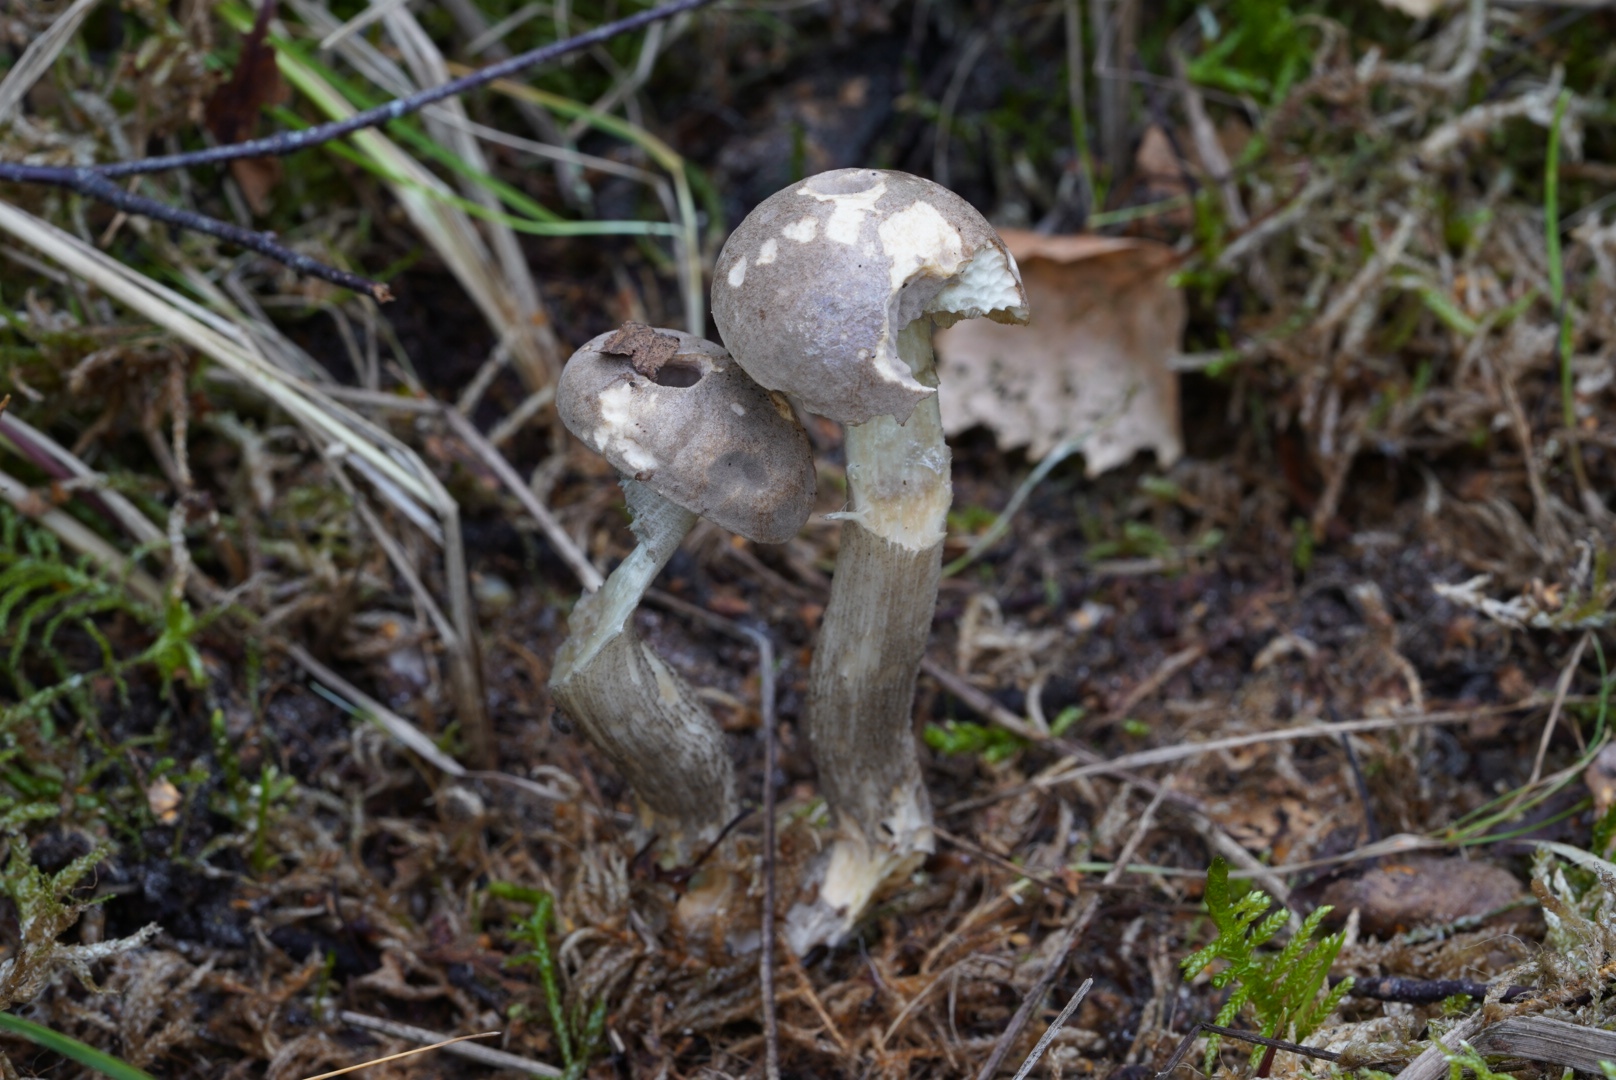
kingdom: Fungi
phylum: Basidiomycota
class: Agaricomycetes
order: Boletales
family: Boletaceae
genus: Leccinum
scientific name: Leccinum variicolor
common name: flammet skælrørhat
